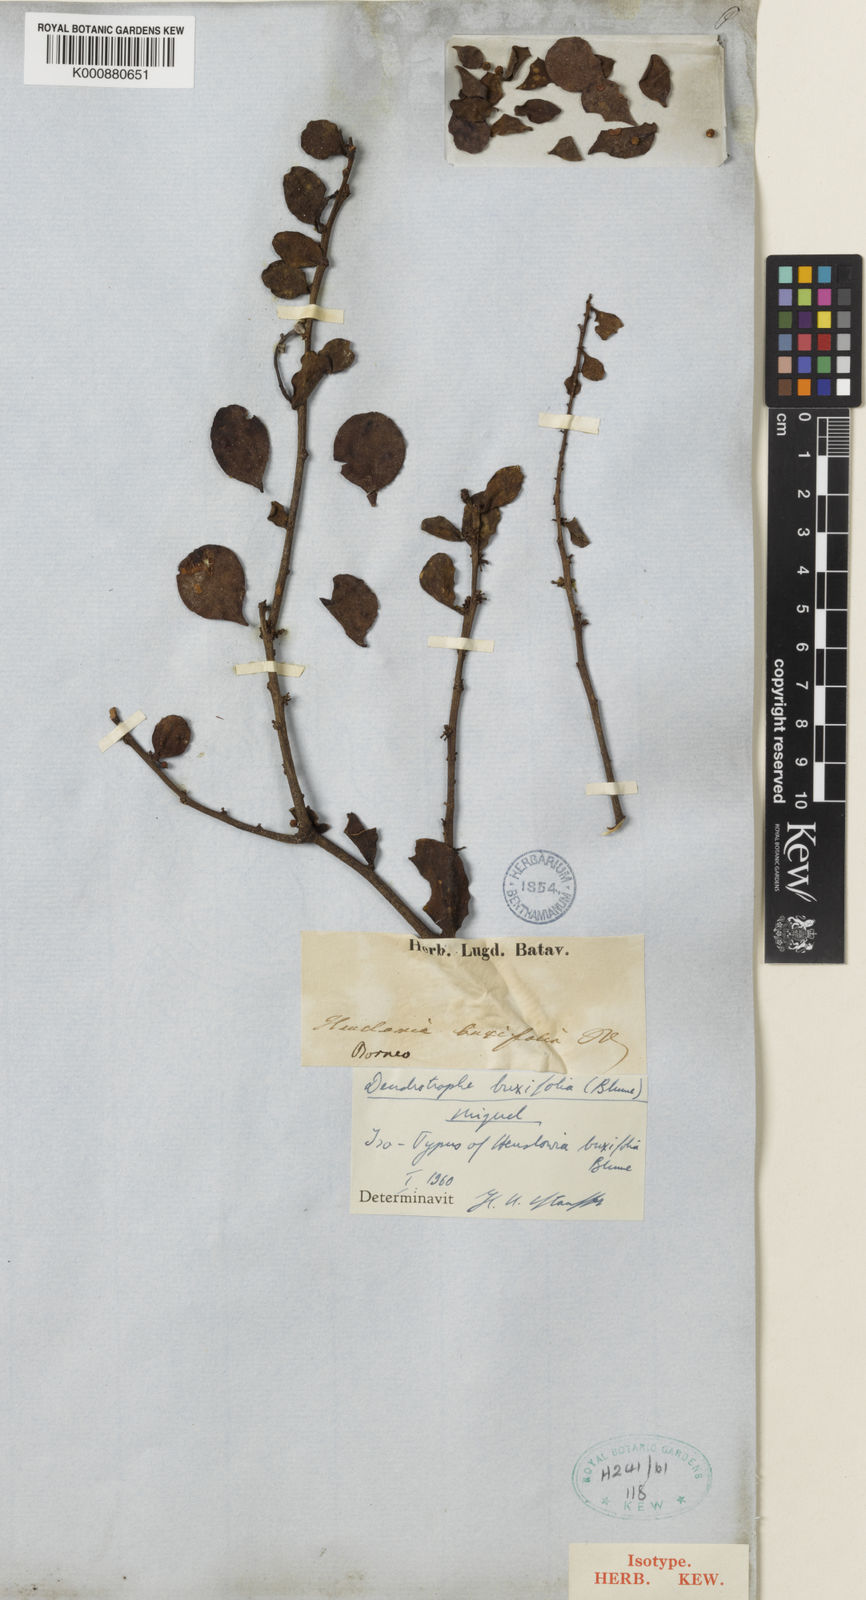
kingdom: Plantae
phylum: Tracheophyta
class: Magnoliopsida
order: Santalales
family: Amphorogynaceae
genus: Dendrotrophe
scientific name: Dendrotrophe buxifolia
